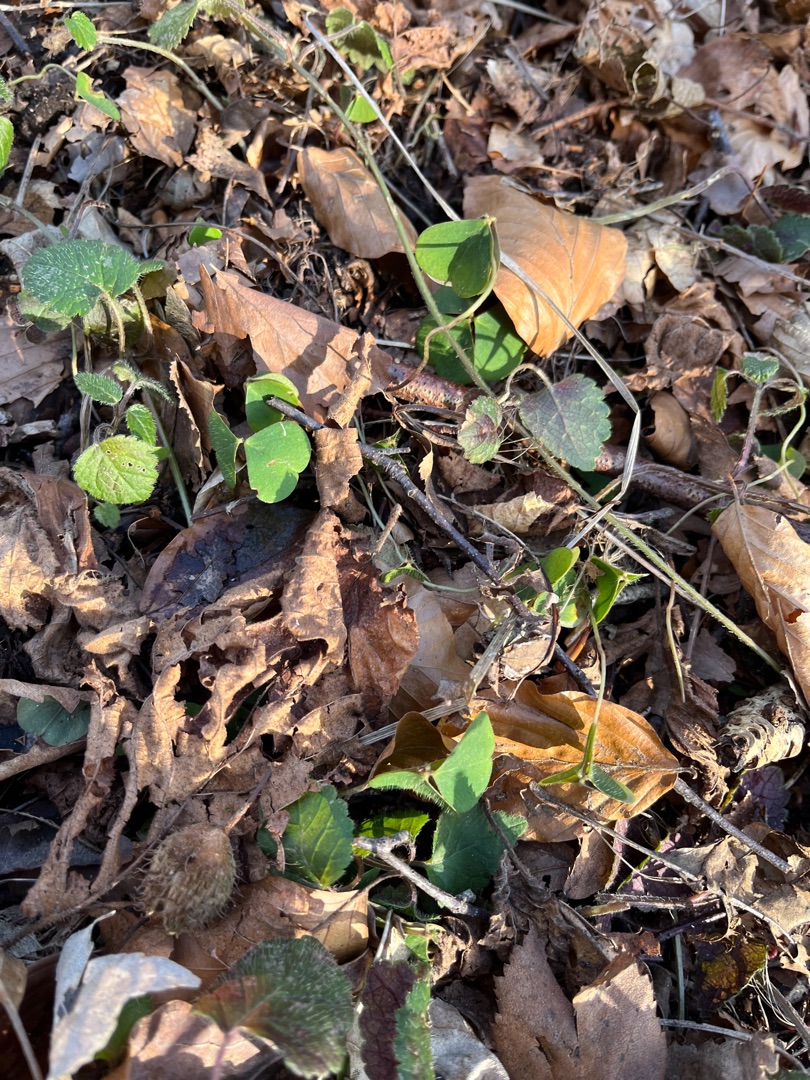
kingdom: Plantae
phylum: Tracheophyta
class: Magnoliopsida
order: Oxalidales
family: Oxalidaceae
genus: Oxalis
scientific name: Oxalis acetosella
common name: Skovsyre
